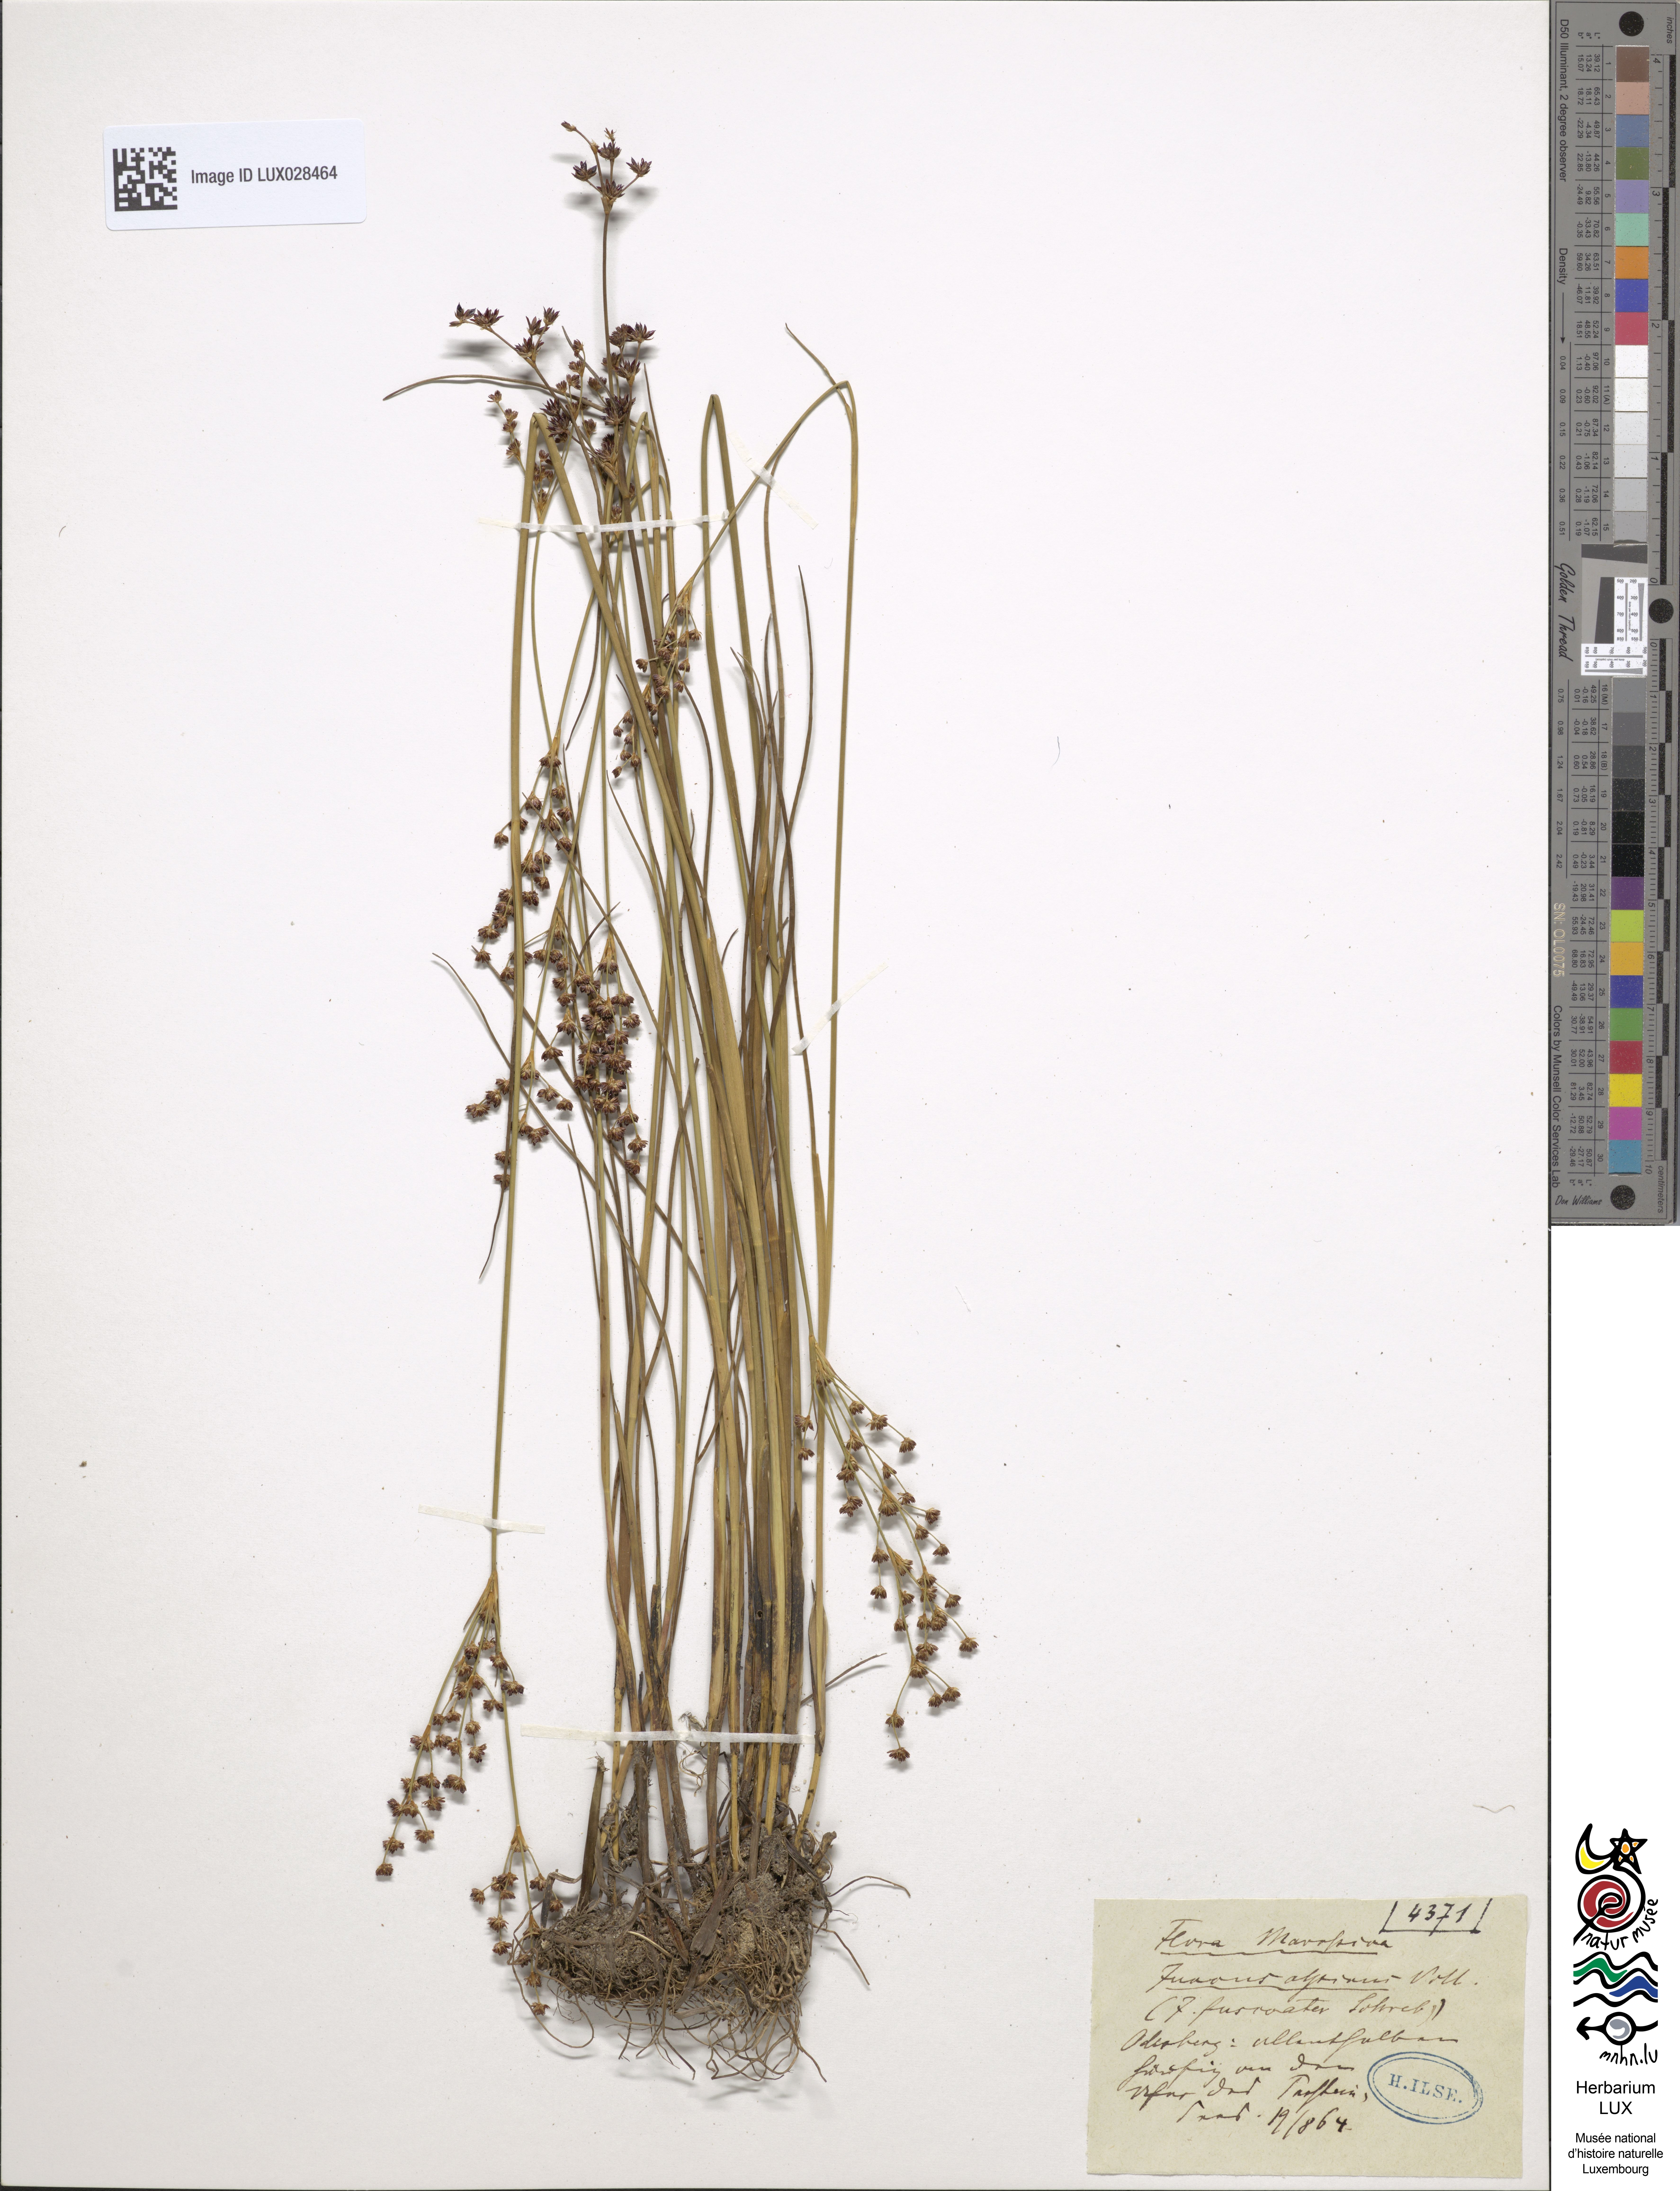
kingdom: Plantae
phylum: Tracheophyta
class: Liliopsida
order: Poales
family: Juncaceae
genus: Juncus
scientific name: Juncus alpinoarticulatus
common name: Alpine rush
